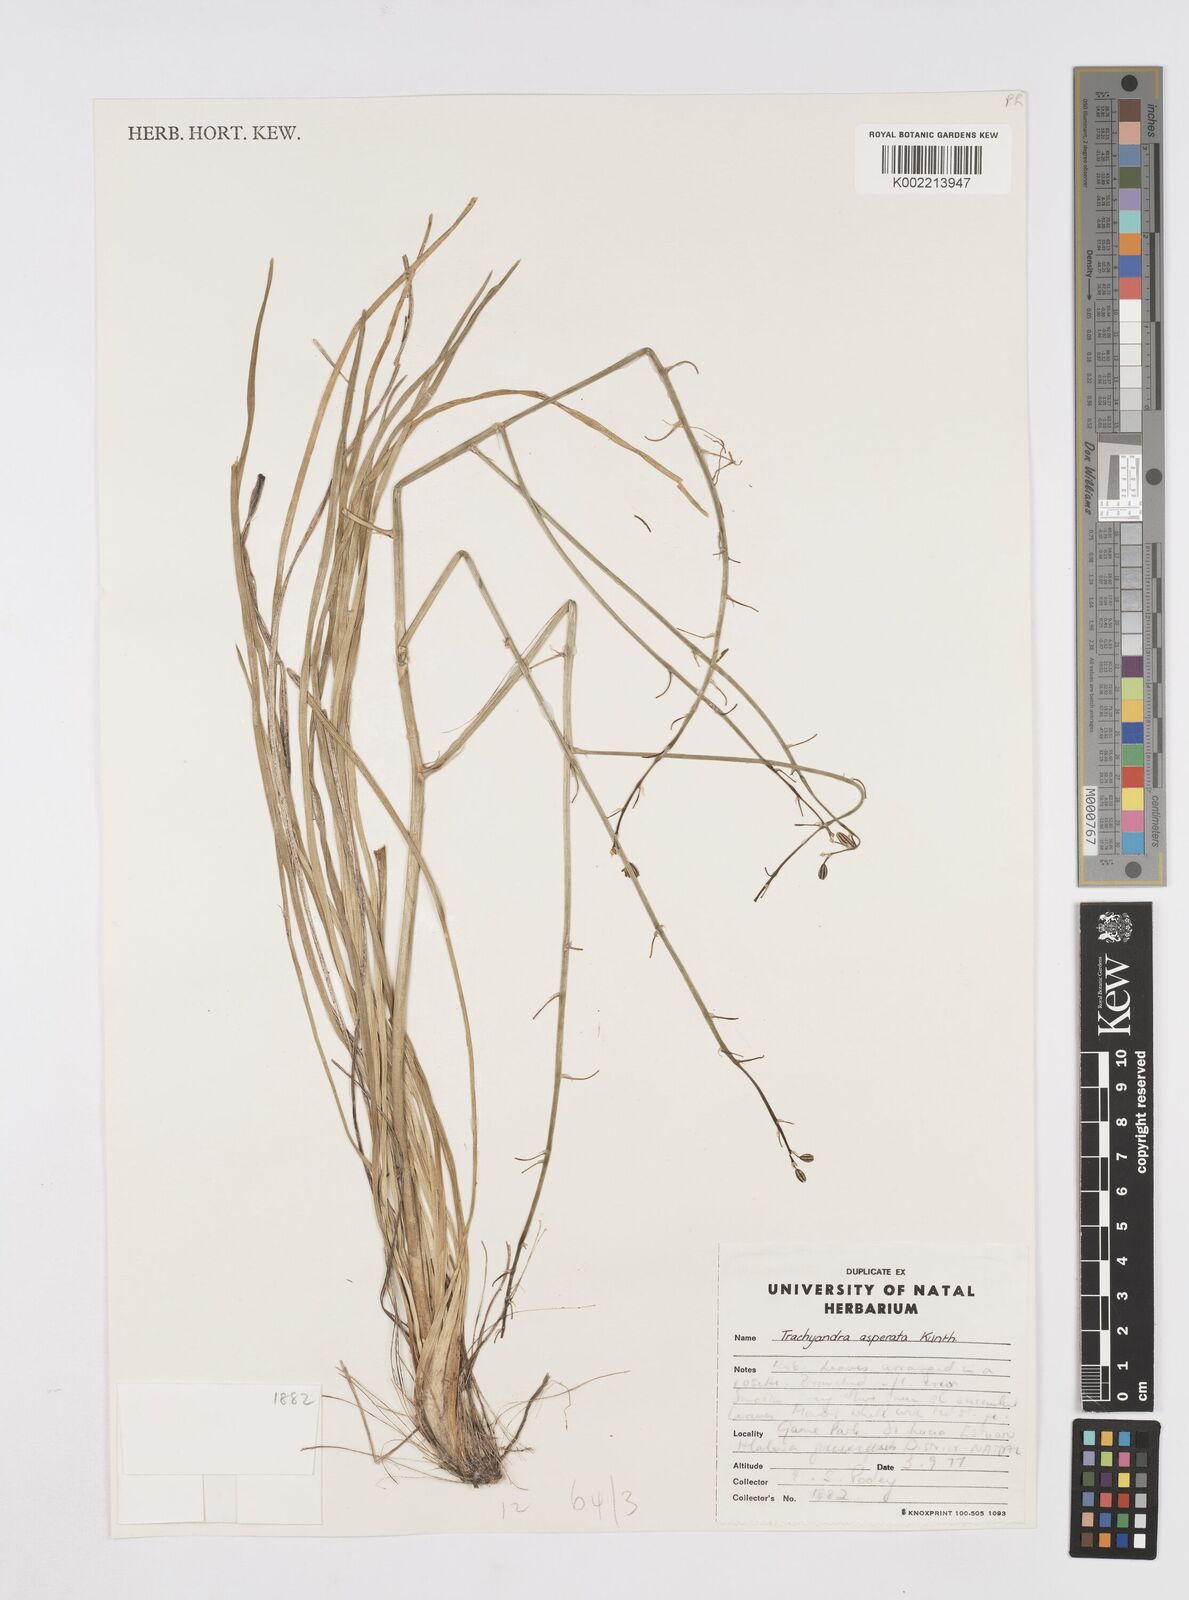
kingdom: Plantae
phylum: Tracheophyta
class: Liliopsida
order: Asparagales
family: Asphodelaceae
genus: Trachyandra
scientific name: Trachyandra asperata
